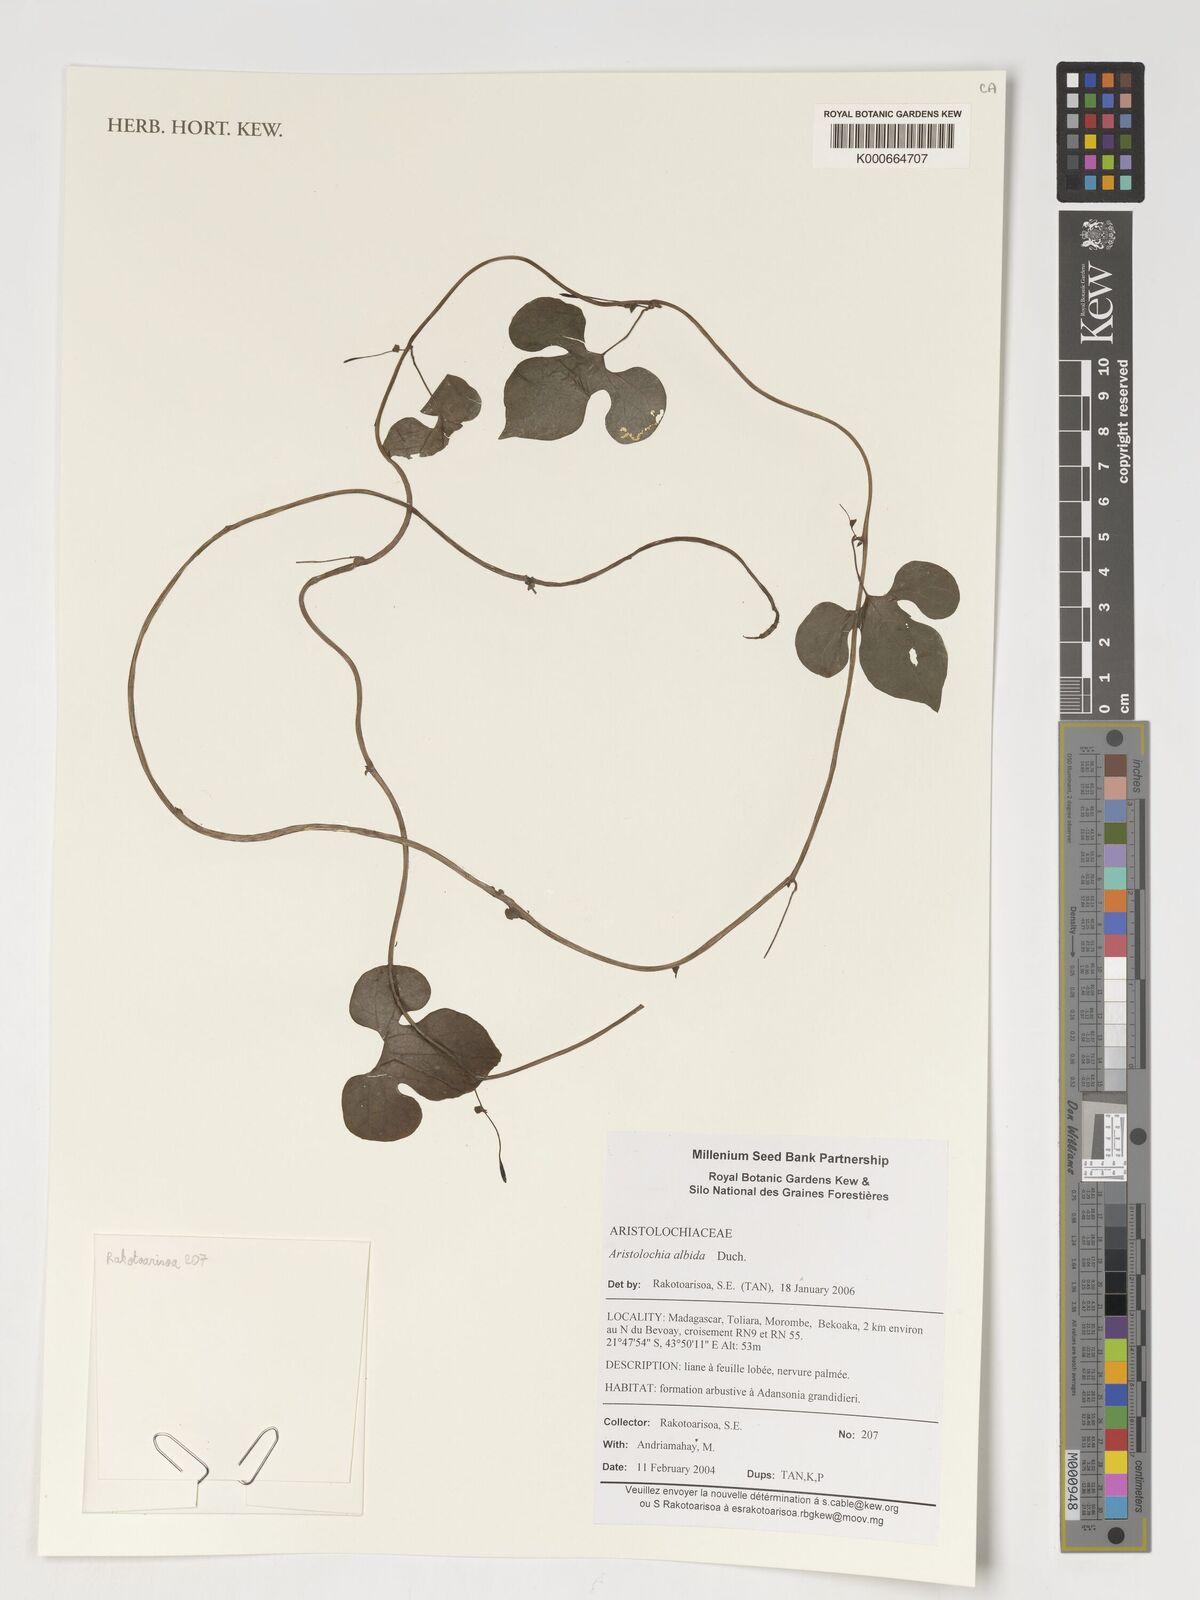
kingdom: Plantae
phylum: Tracheophyta
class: Magnoliopsida
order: Piperales
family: Aristolochiaceae
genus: Aristolochia
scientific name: Aristolochia albida
